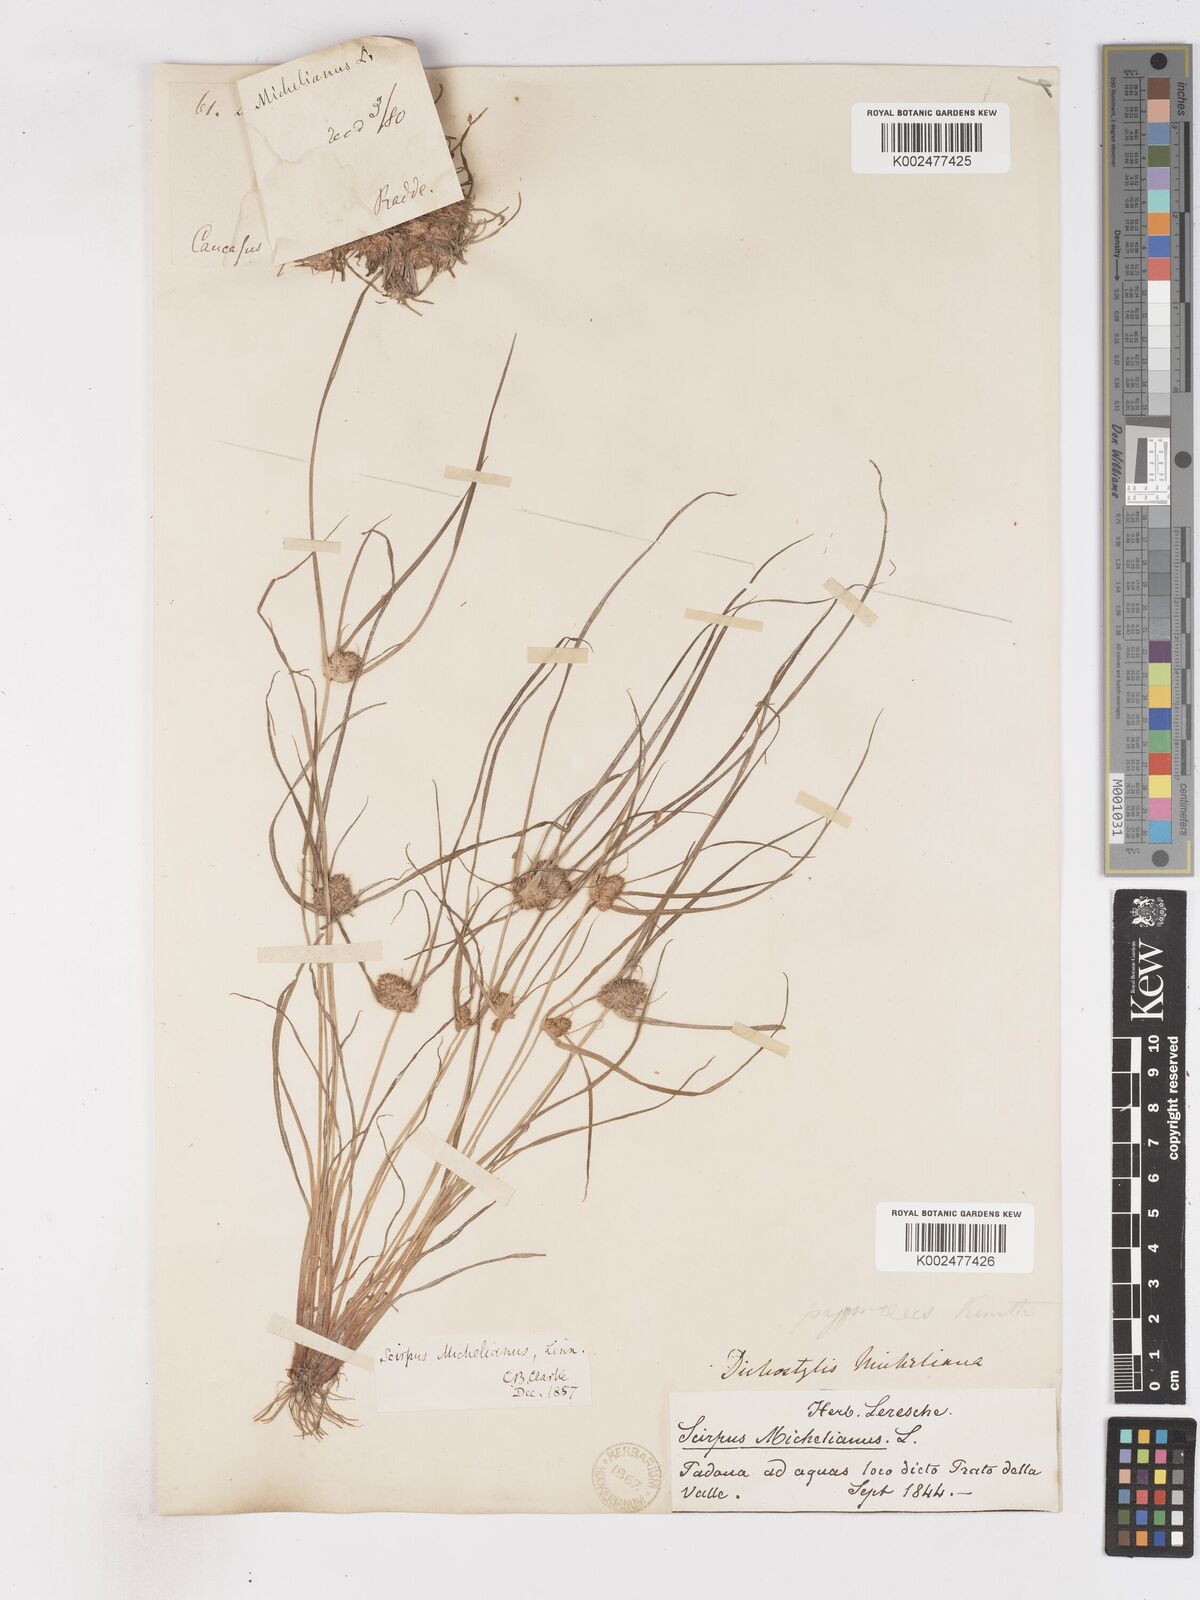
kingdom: Plantae
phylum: Tracheophyta
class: Liliopsida
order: Poales
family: Cyperaceae
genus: Cyperus
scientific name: Cyperus michelianus
